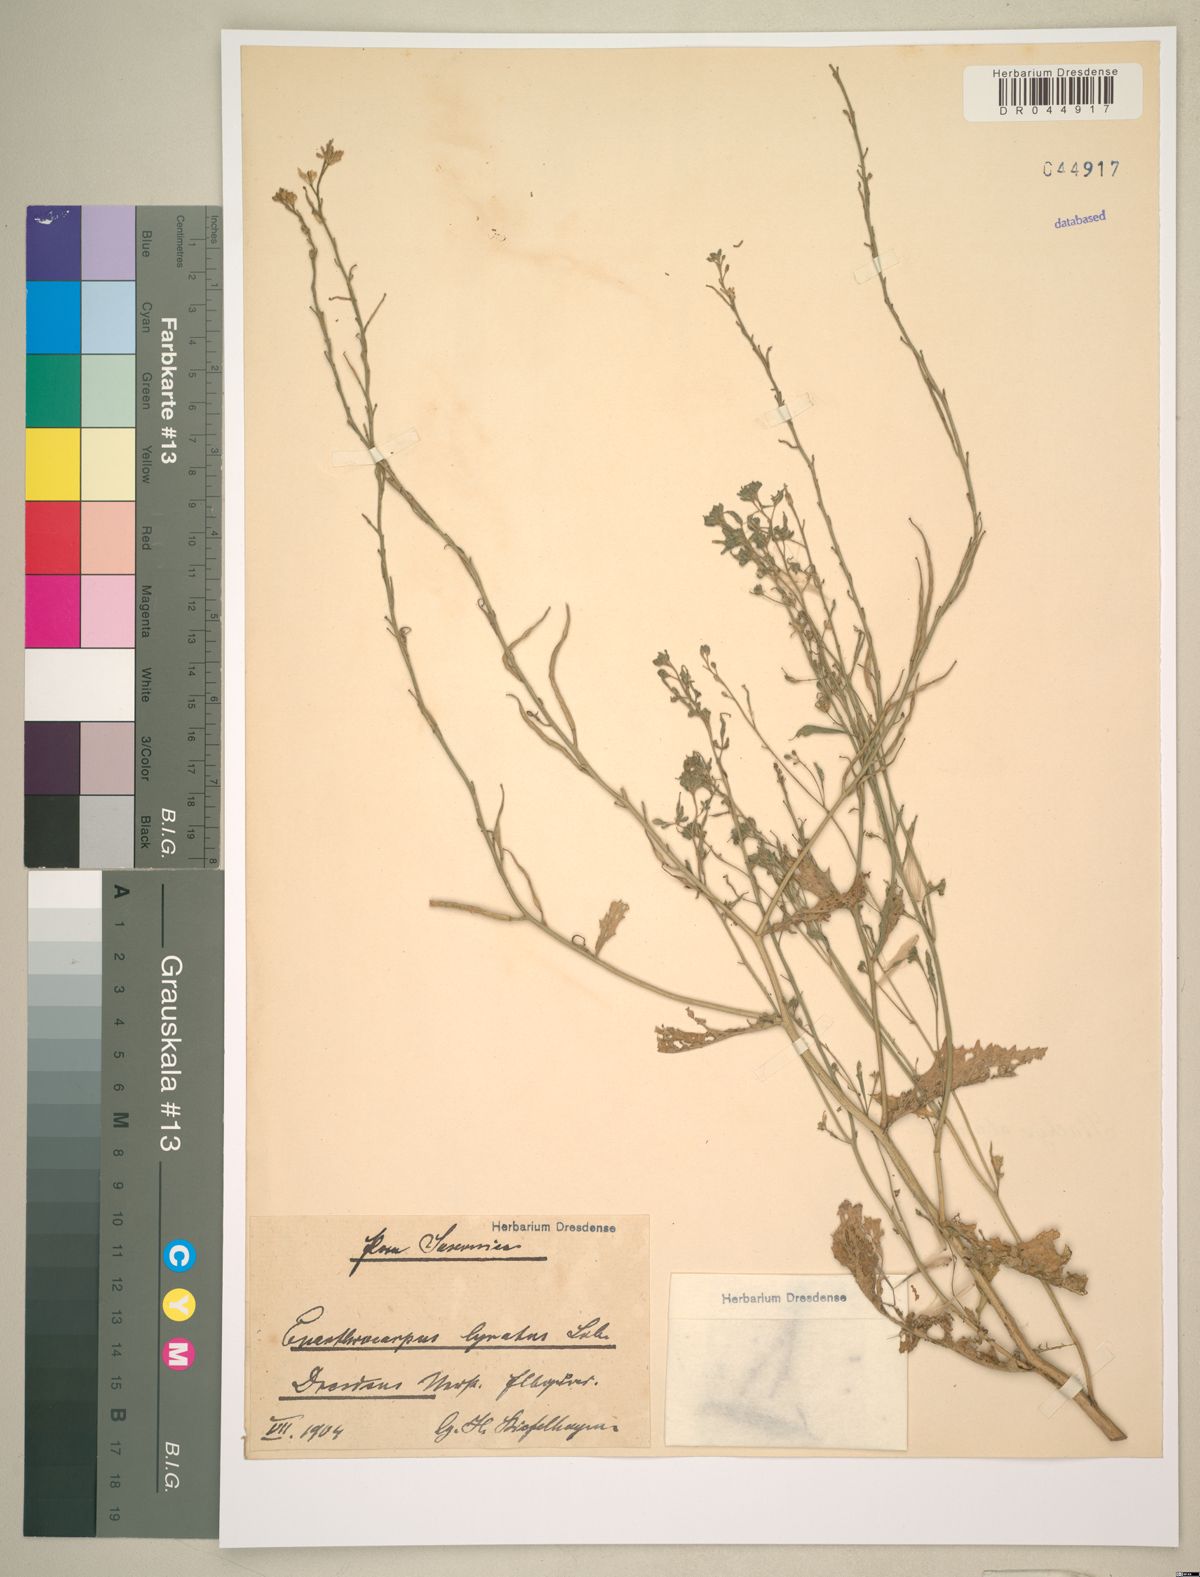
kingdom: Plantae
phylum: Tracheophyta
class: Magnoliopsida
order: Brassicales
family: Brassicaceae
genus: Enarthrocarpus
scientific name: Enarthrocarpus lyratus
